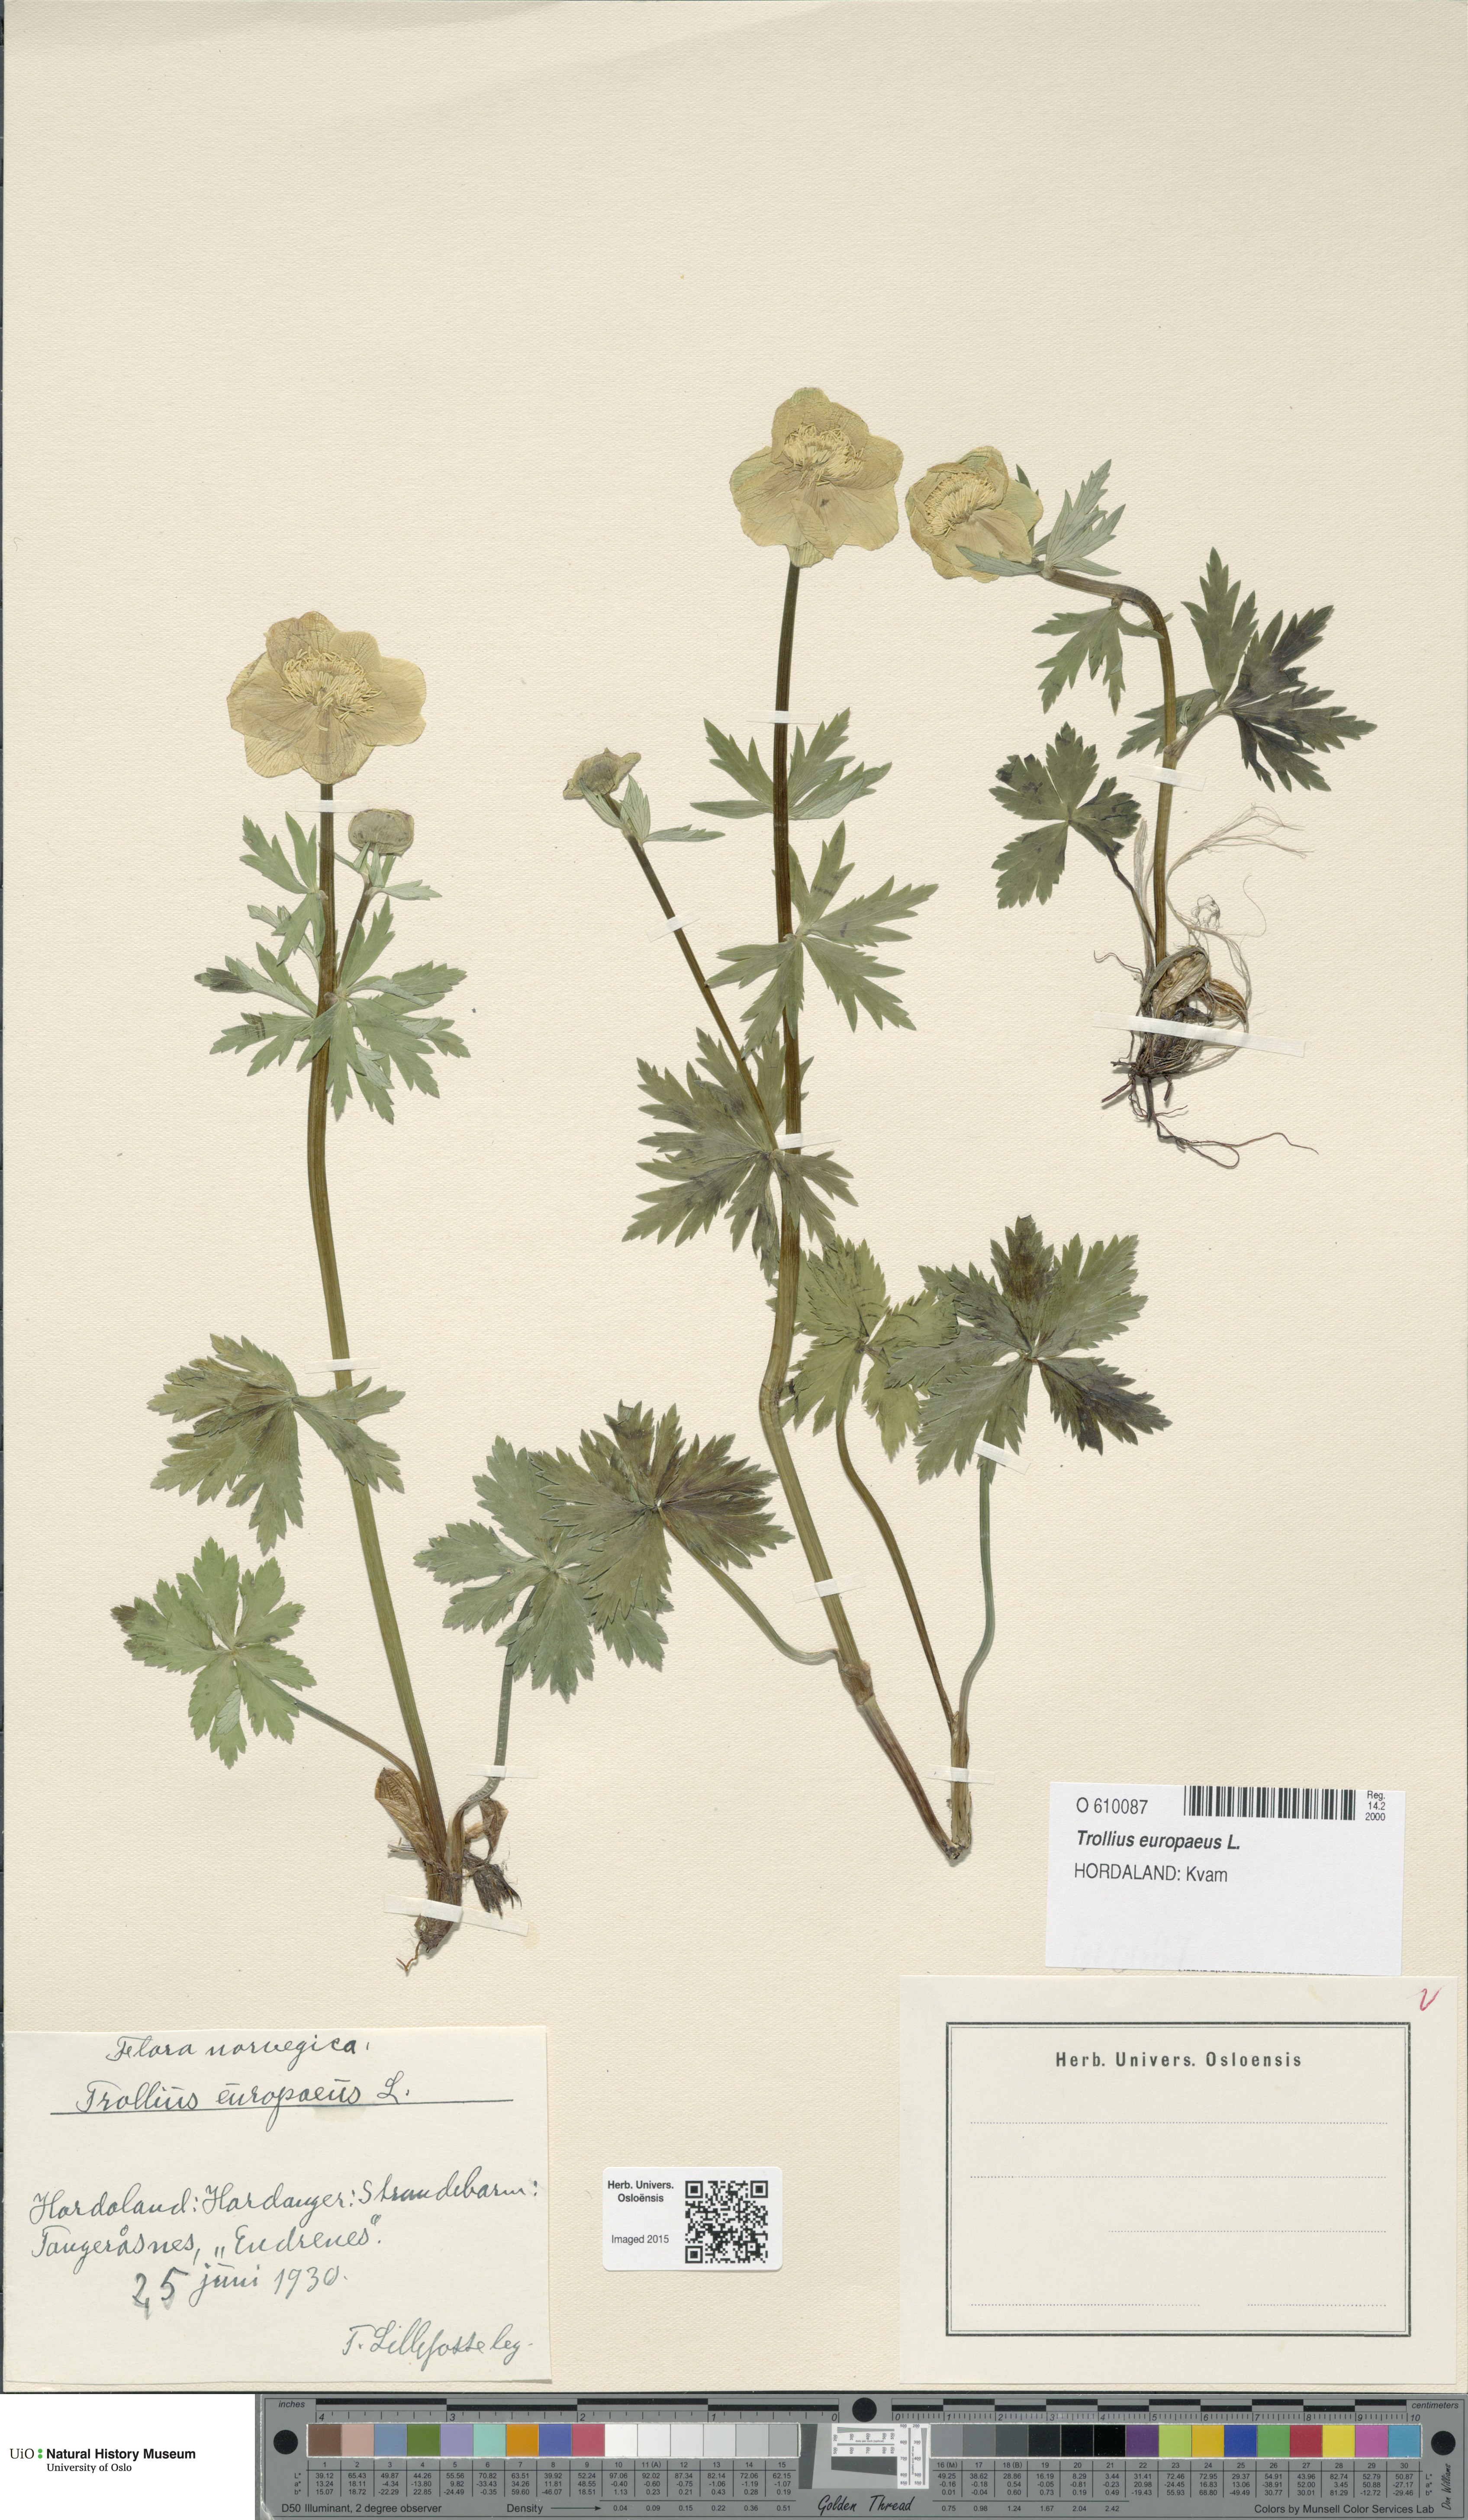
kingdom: Plantae
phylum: Tracheophyta
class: Magnoliopsida
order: Ranunculales
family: Ranunculaceae
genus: Trollius
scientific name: Trollius europaeus
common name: European globeflower
